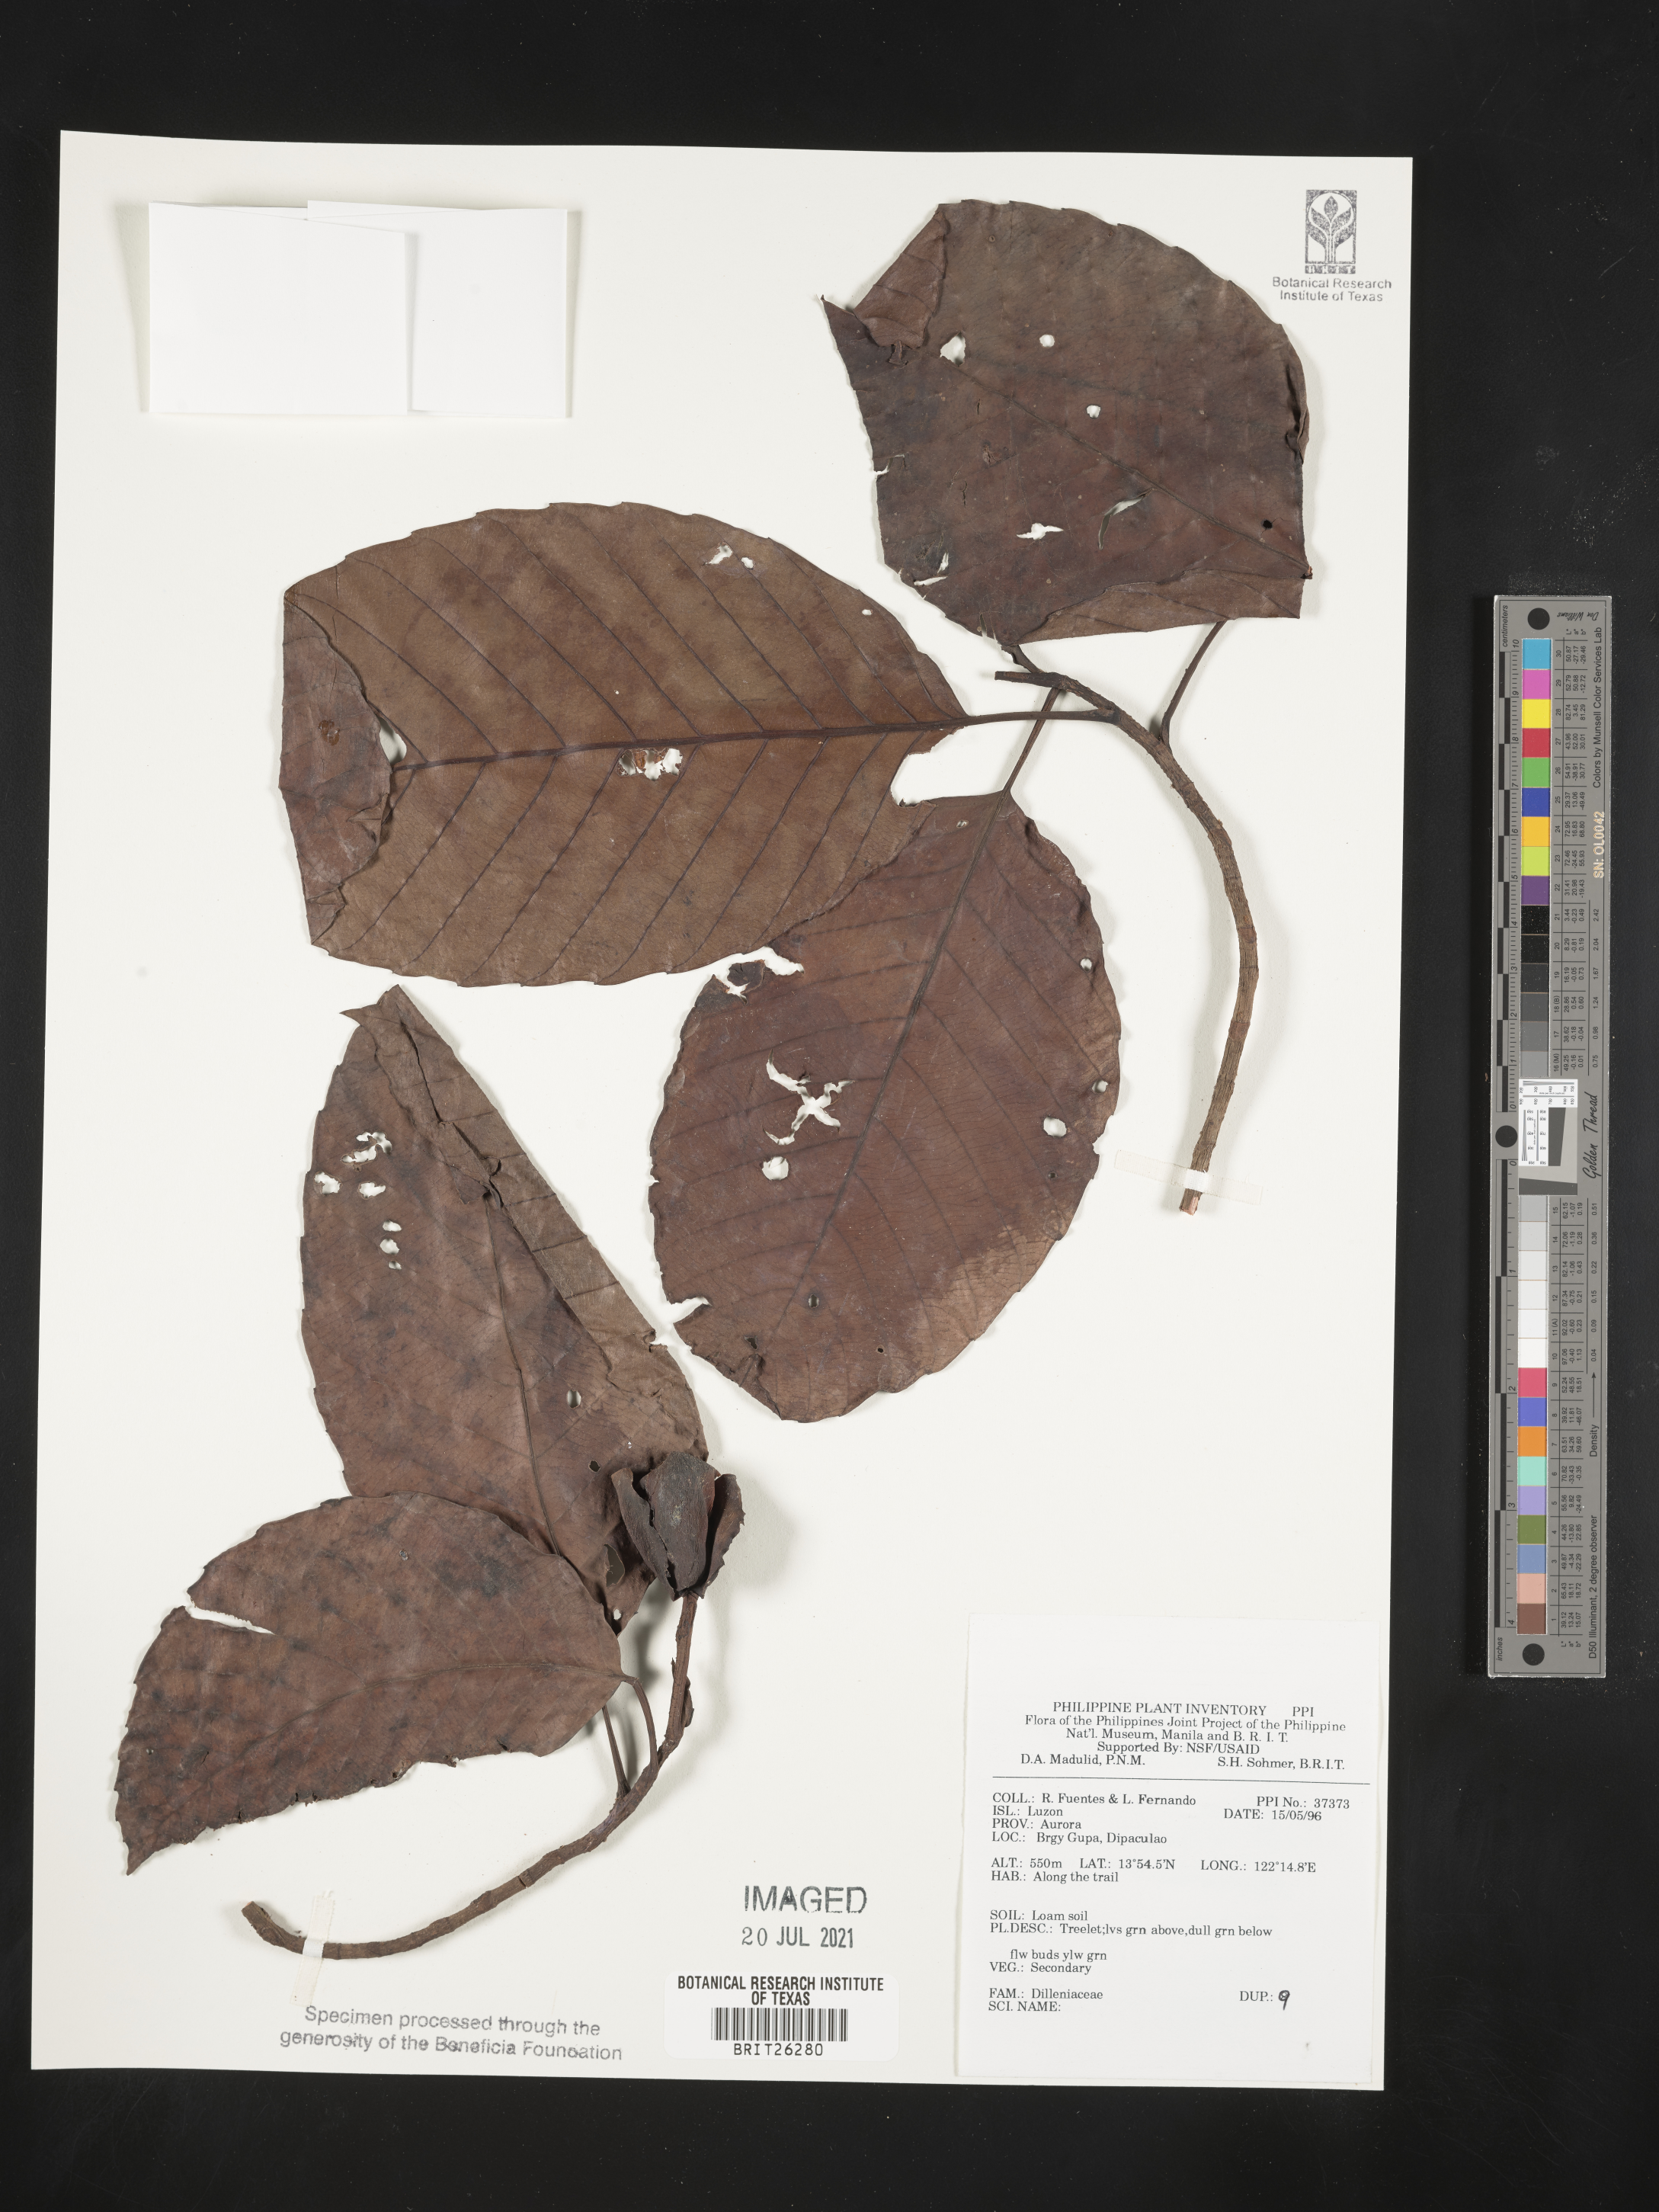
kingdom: Plantae
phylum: Tracheophyta
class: Magnoliopsida
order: Dilleniales
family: Dilleniaceae
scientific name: Dilleniaceae
